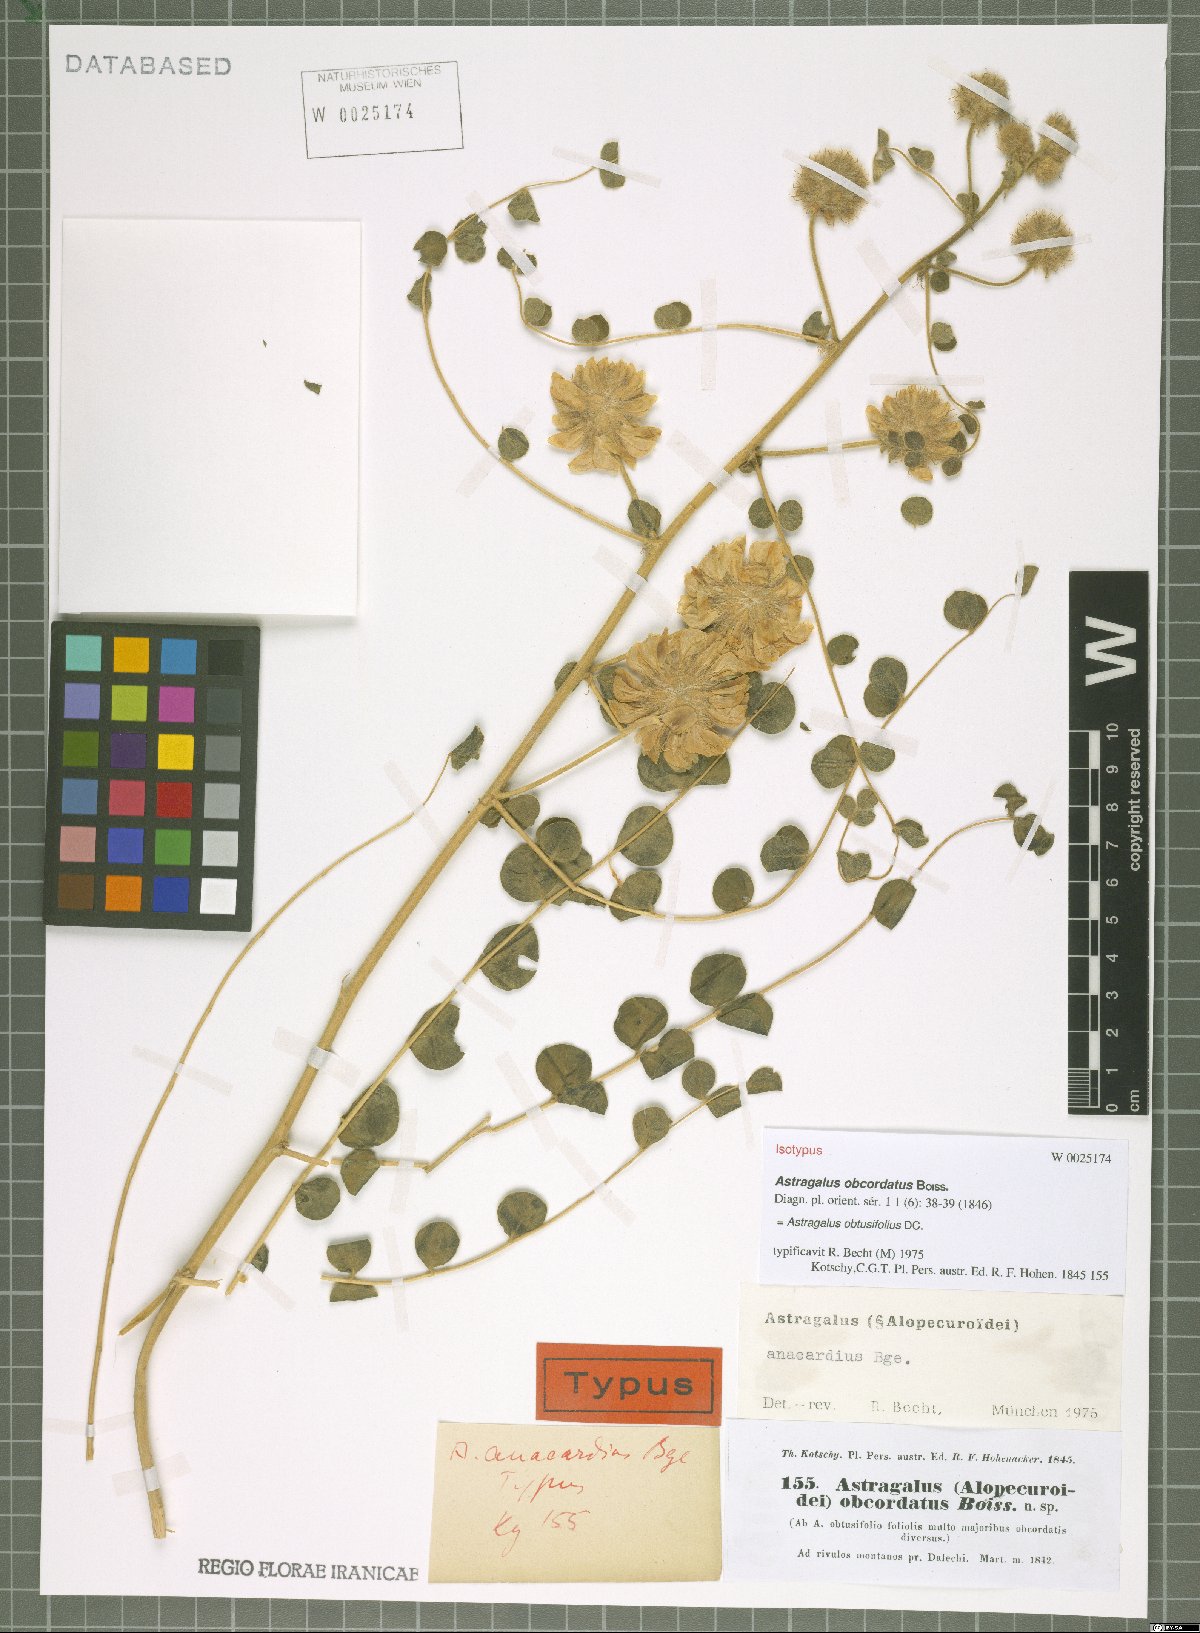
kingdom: Plantae
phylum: Tracheophyta
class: Magnoliopsida
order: Fabales
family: Fabaceae
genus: Astragalus
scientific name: Astragalus obtusifolius
